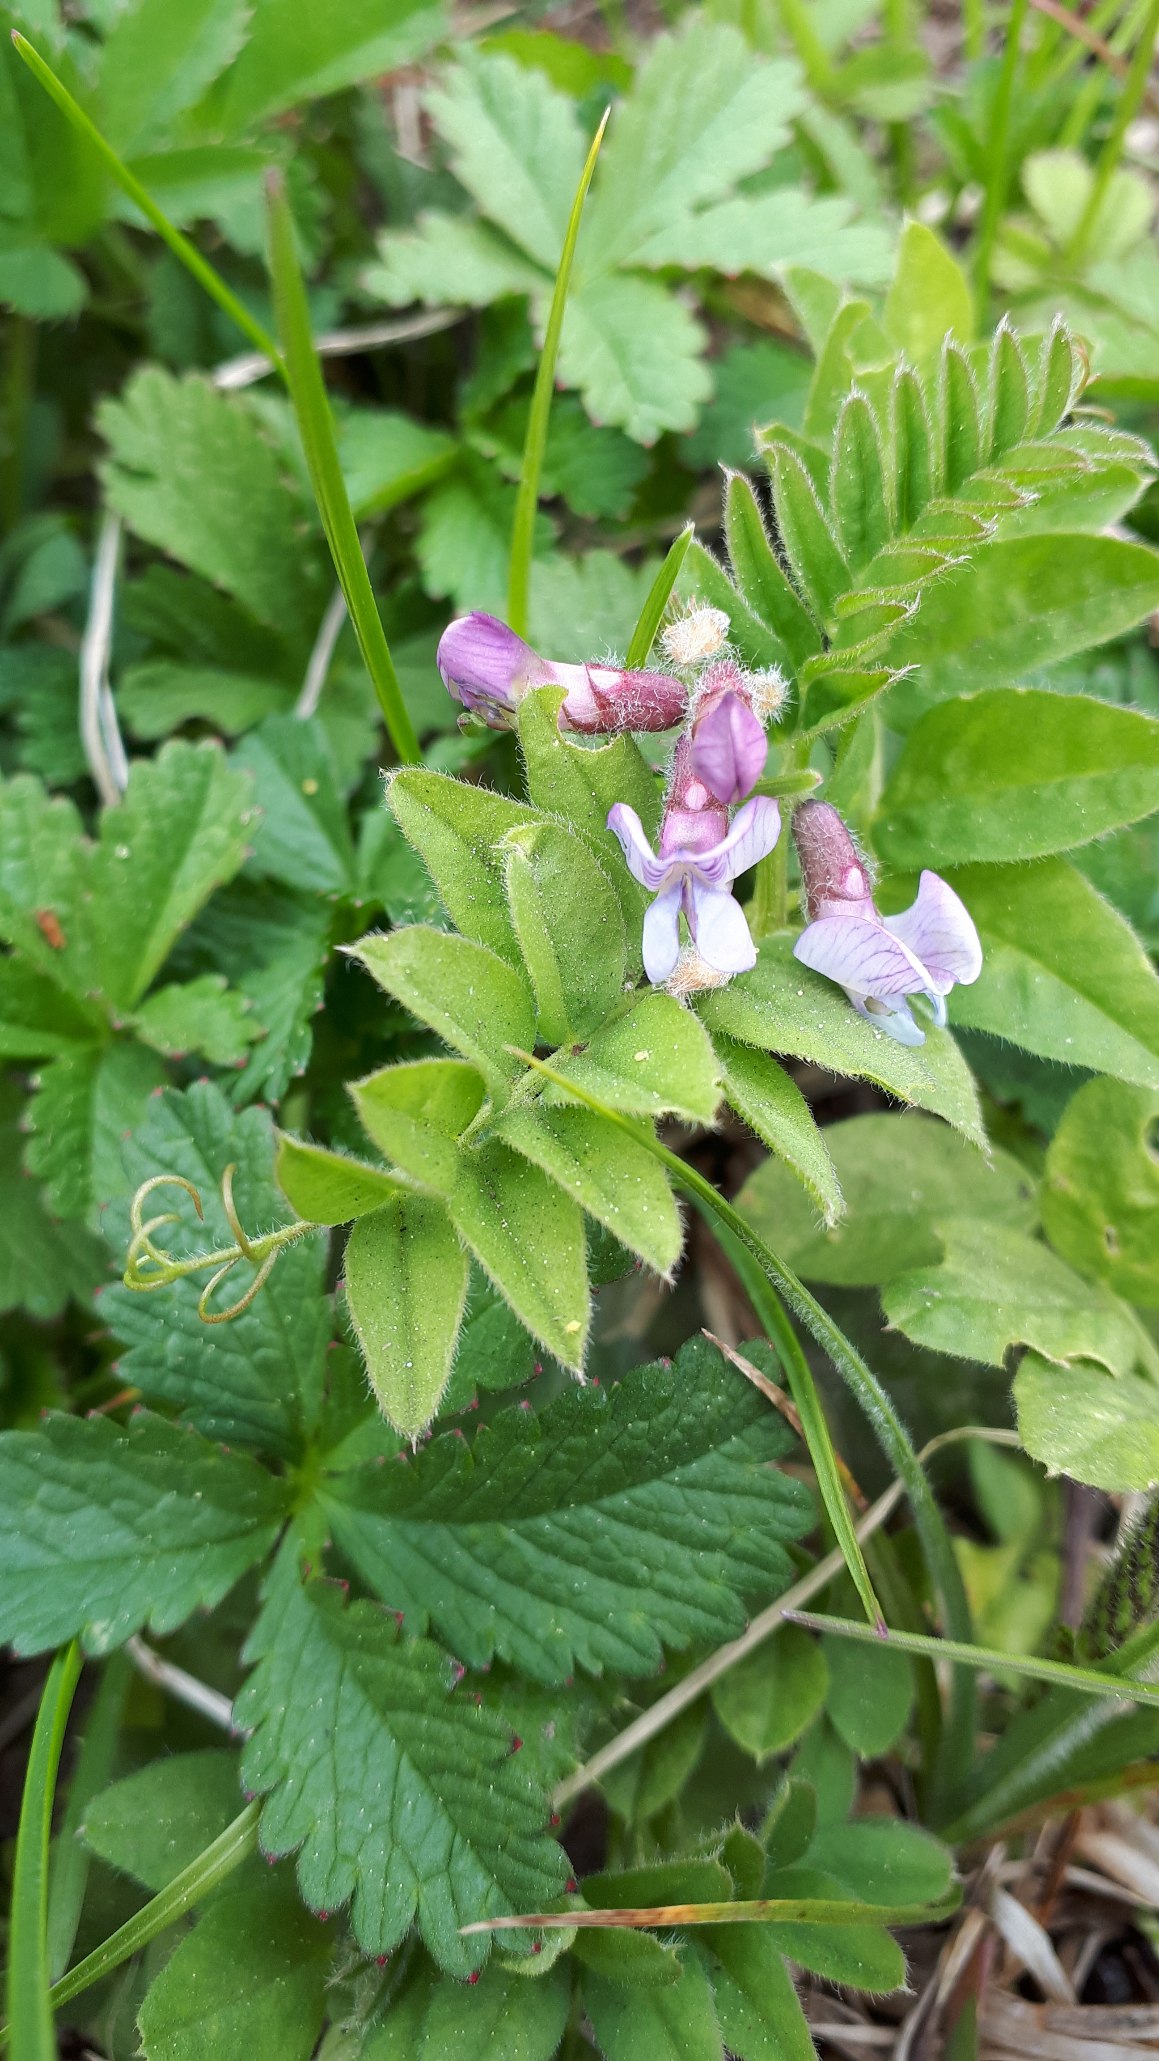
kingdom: Plantae
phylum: Tracheophyta
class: Magnoliopsida
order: Fabales
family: Fabaceae
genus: Vicia
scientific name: Vicia sepium
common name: Gærde-vikke
